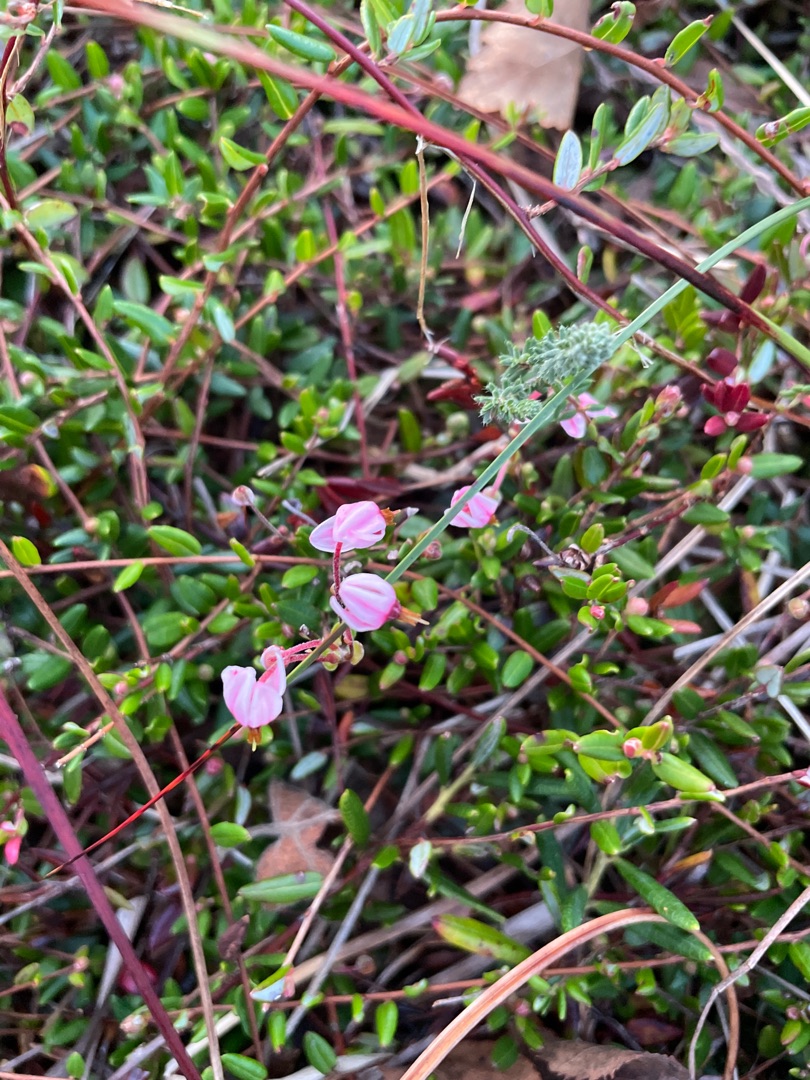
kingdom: Plantae
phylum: Tracheophyta
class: Magnoliopsida
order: Ericales
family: Ericaceae
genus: Vaccinium
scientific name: Vaccinium oxycoccos
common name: Tranebær
